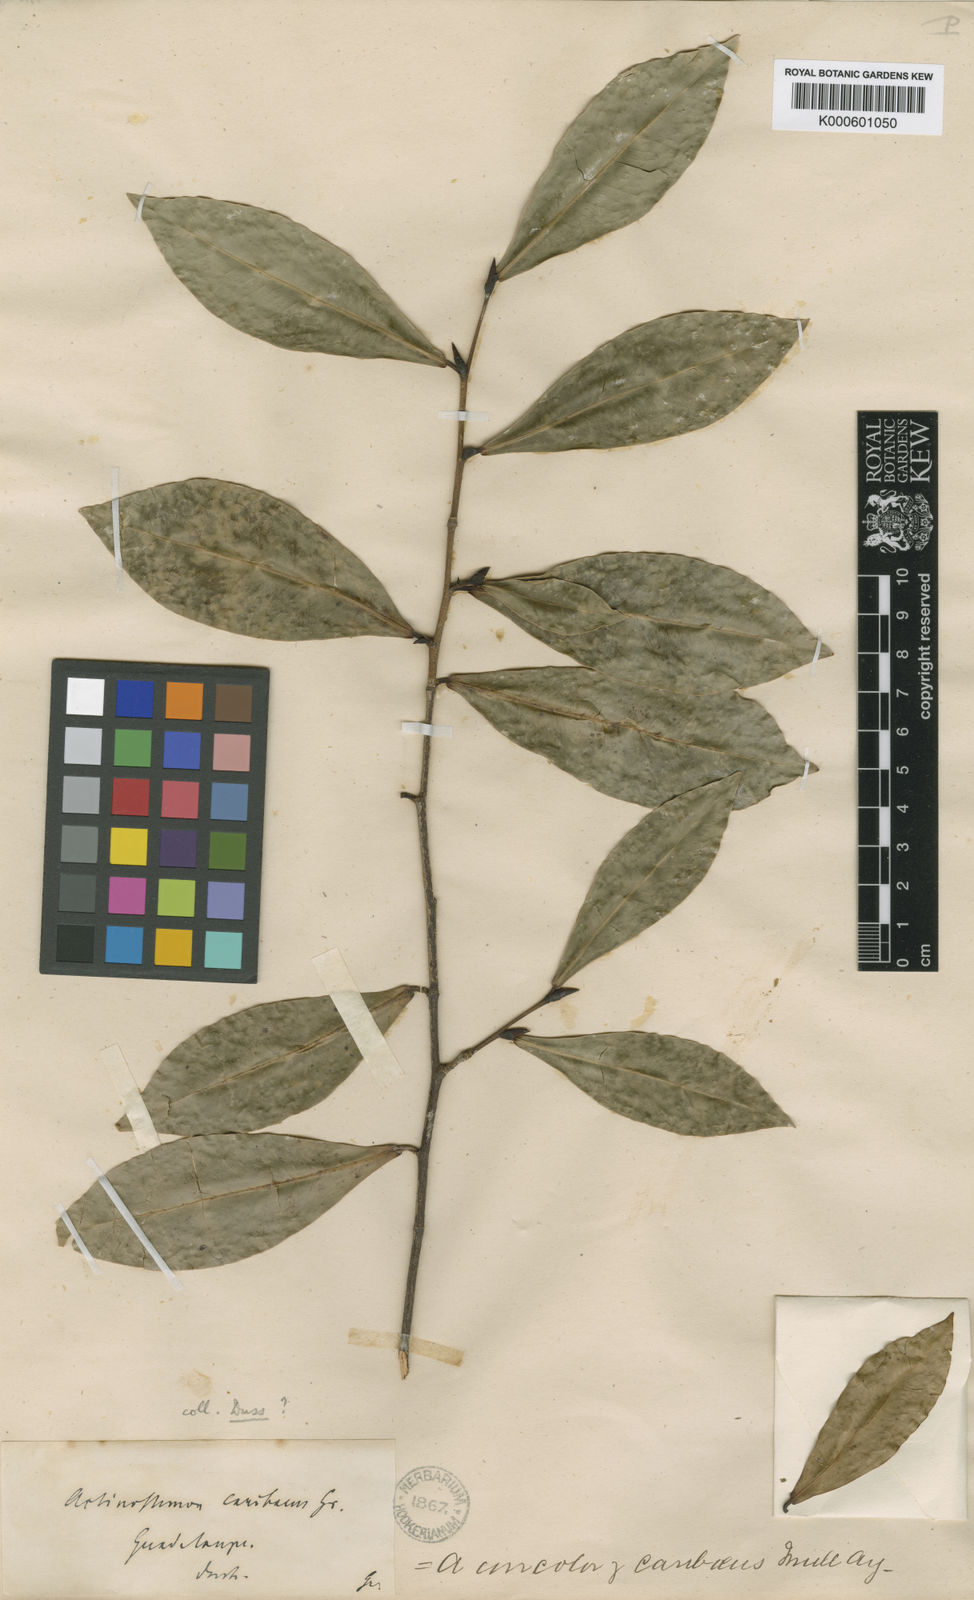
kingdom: Plantae
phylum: Tracheophyta
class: Magnoliopsida
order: Malpighiales
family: Euphorbiaceae
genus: Actinostemon
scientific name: Actinostemon caribaeus
